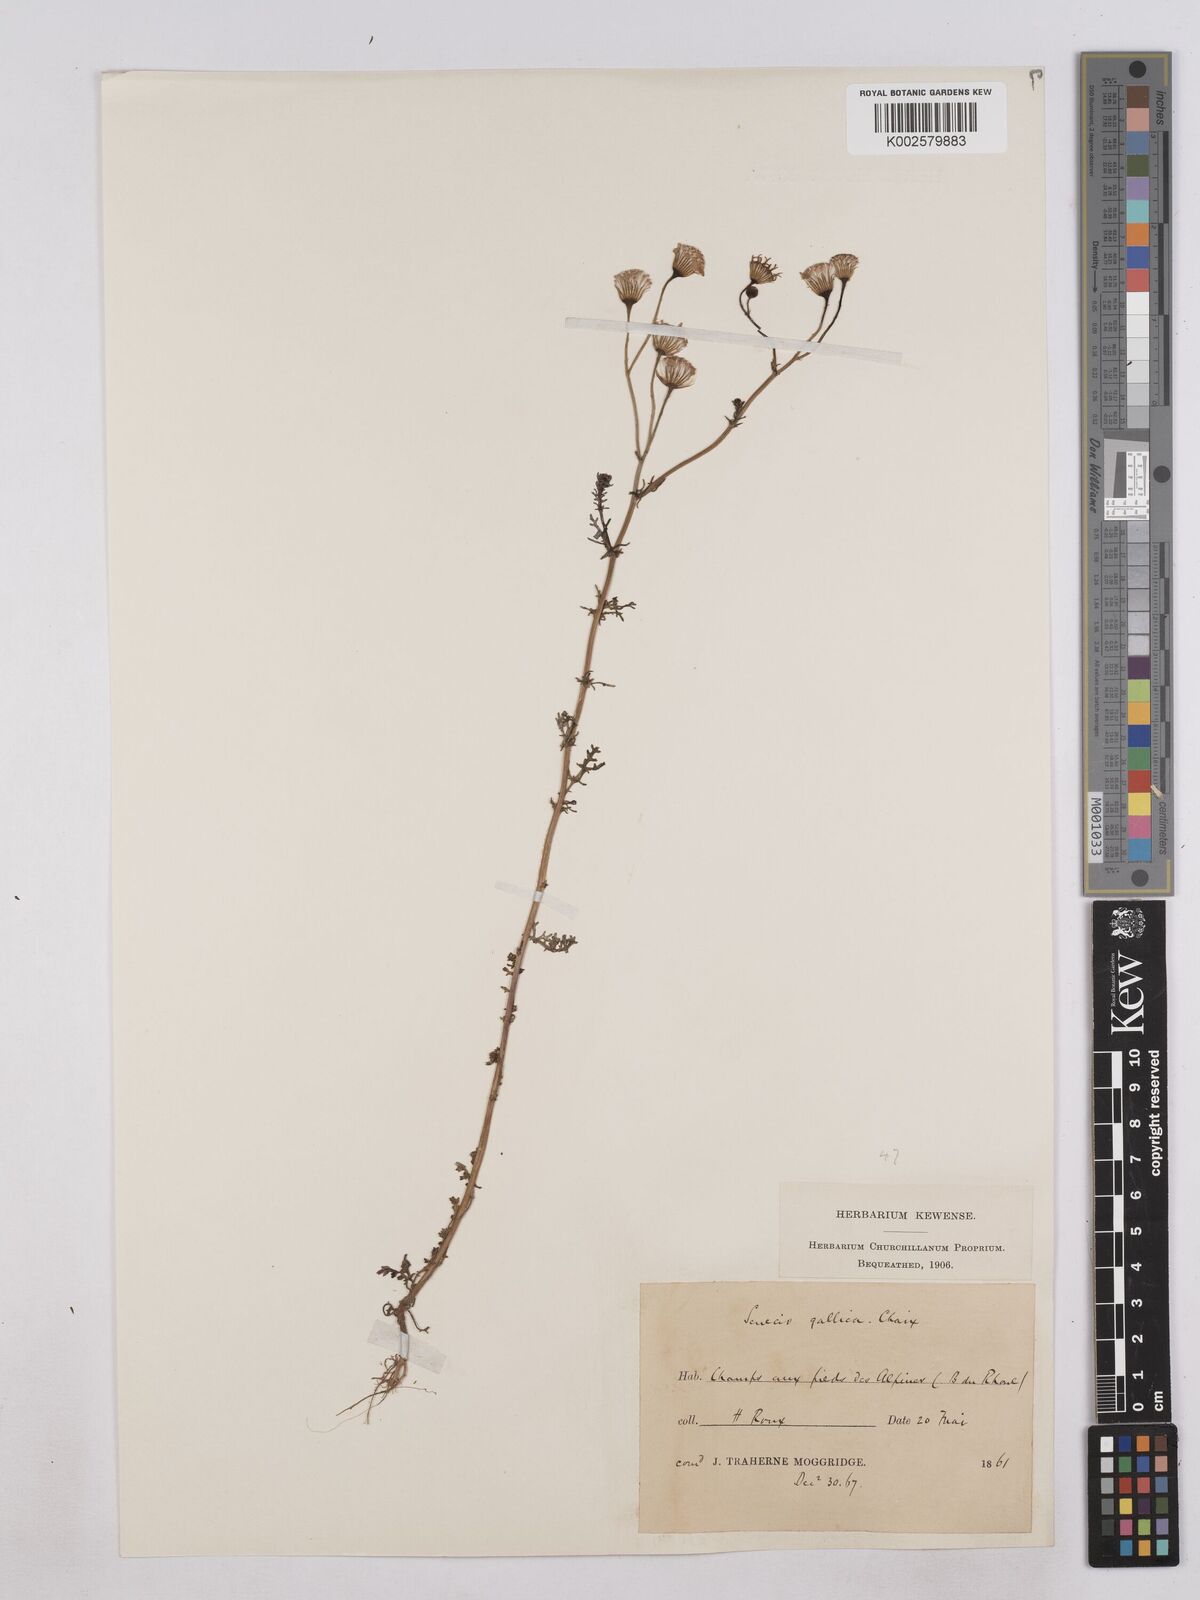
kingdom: Plantae
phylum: Tracheophyta
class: Magnoliopsida
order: Asterales
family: Asteraceae
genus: Senecio
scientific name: Senecio gallicus
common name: French groundsel
